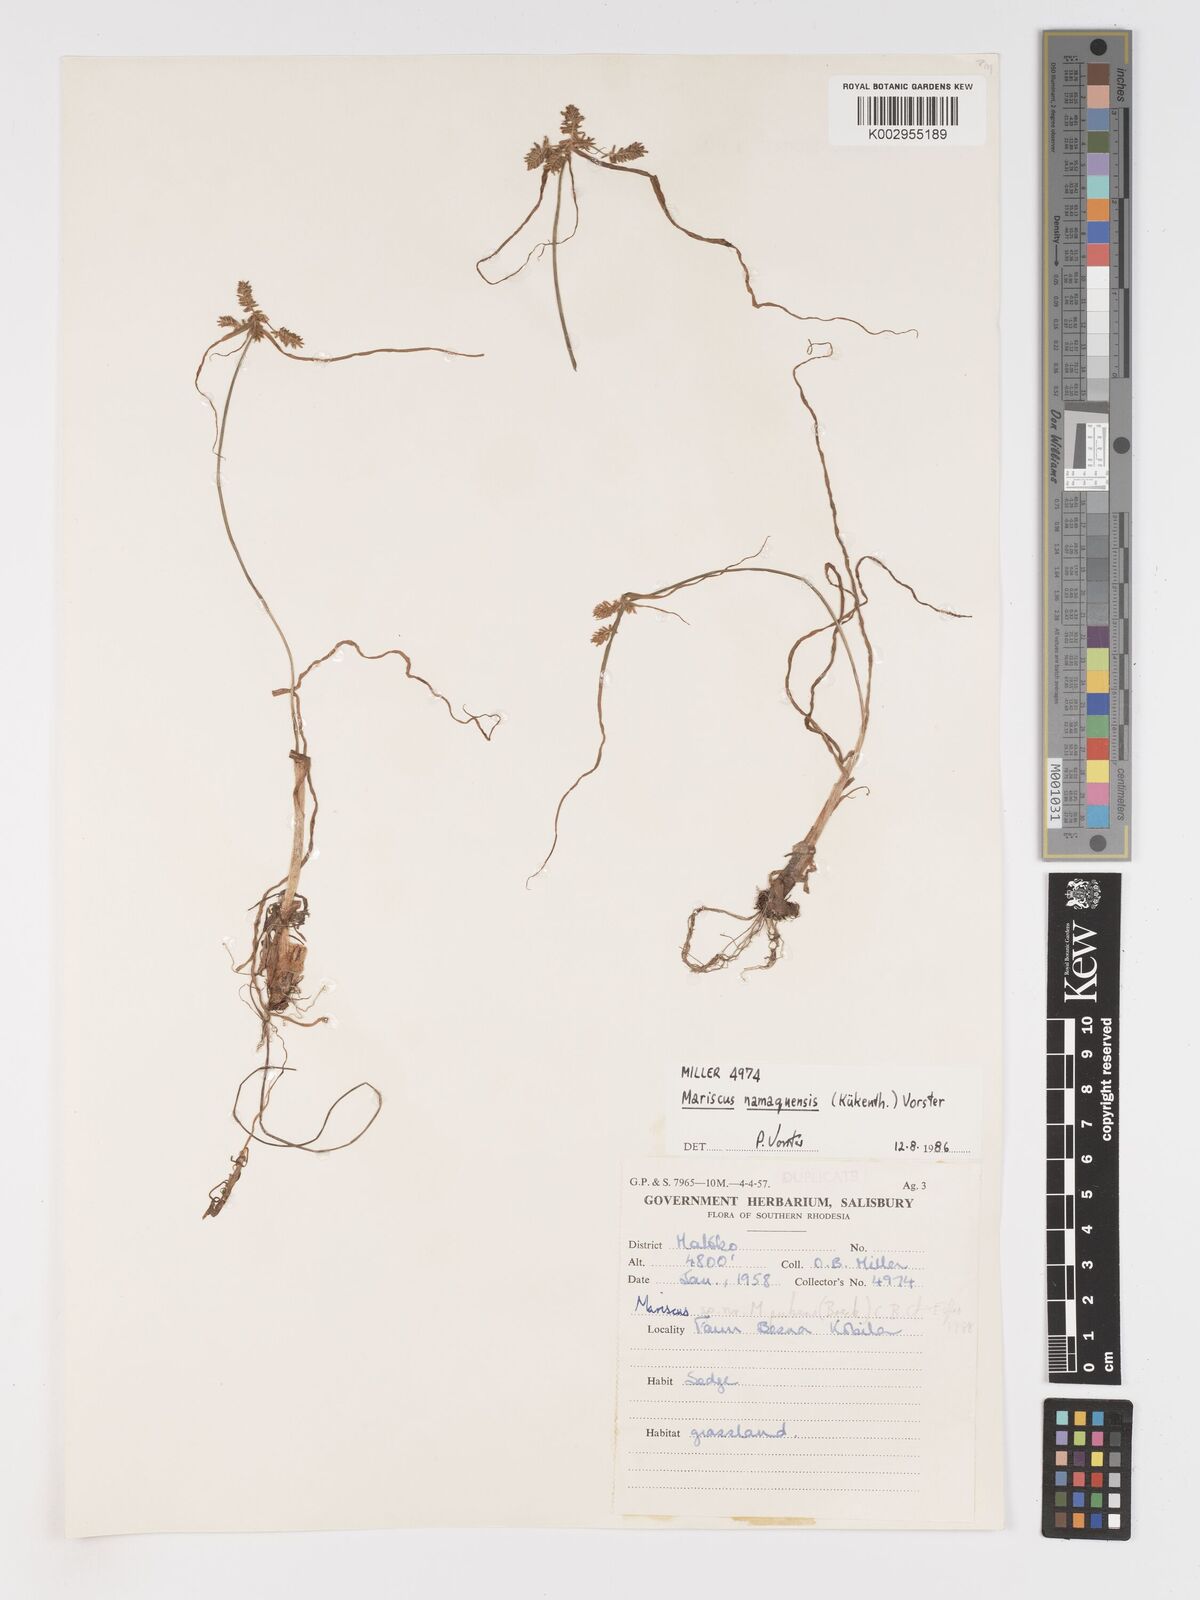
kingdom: Plantae
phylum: Tracheophyta
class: Liliopsida
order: Poales
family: Cyperaceae
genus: Cyperus
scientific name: Cyperus
